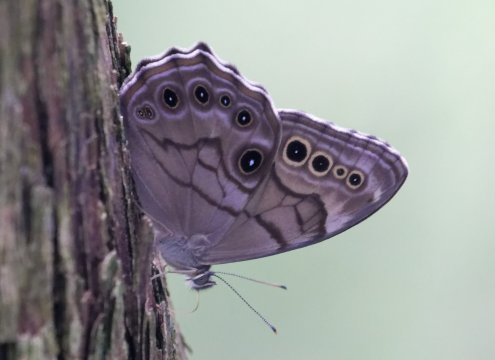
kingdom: Animalia
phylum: Arthropoda
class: Insecta
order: Lepidoptera
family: Nymphalidae
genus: Lethe
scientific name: Lethe anthedon
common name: Northern Pearly-Eye
